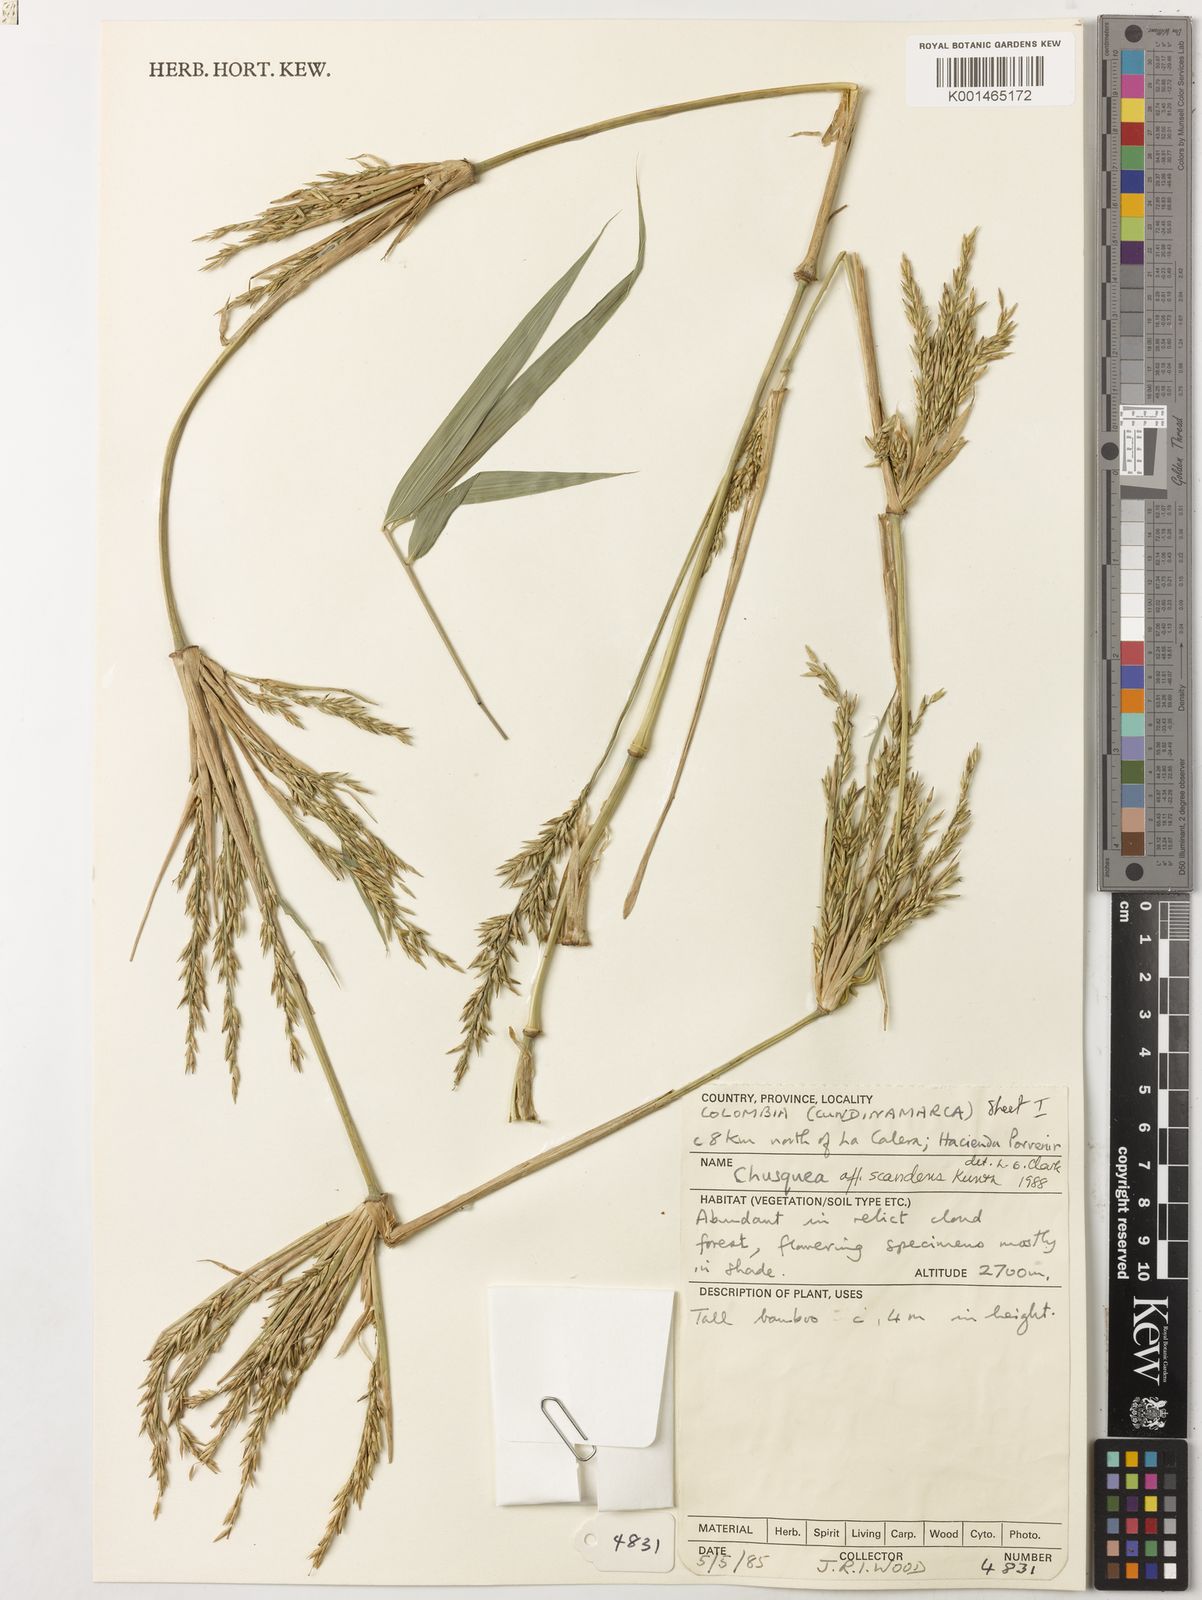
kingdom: Plantae
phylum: Tracheophyta
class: Liliopsida
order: Poales
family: Poaceae
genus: Chusquea
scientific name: Chusquea scandens
